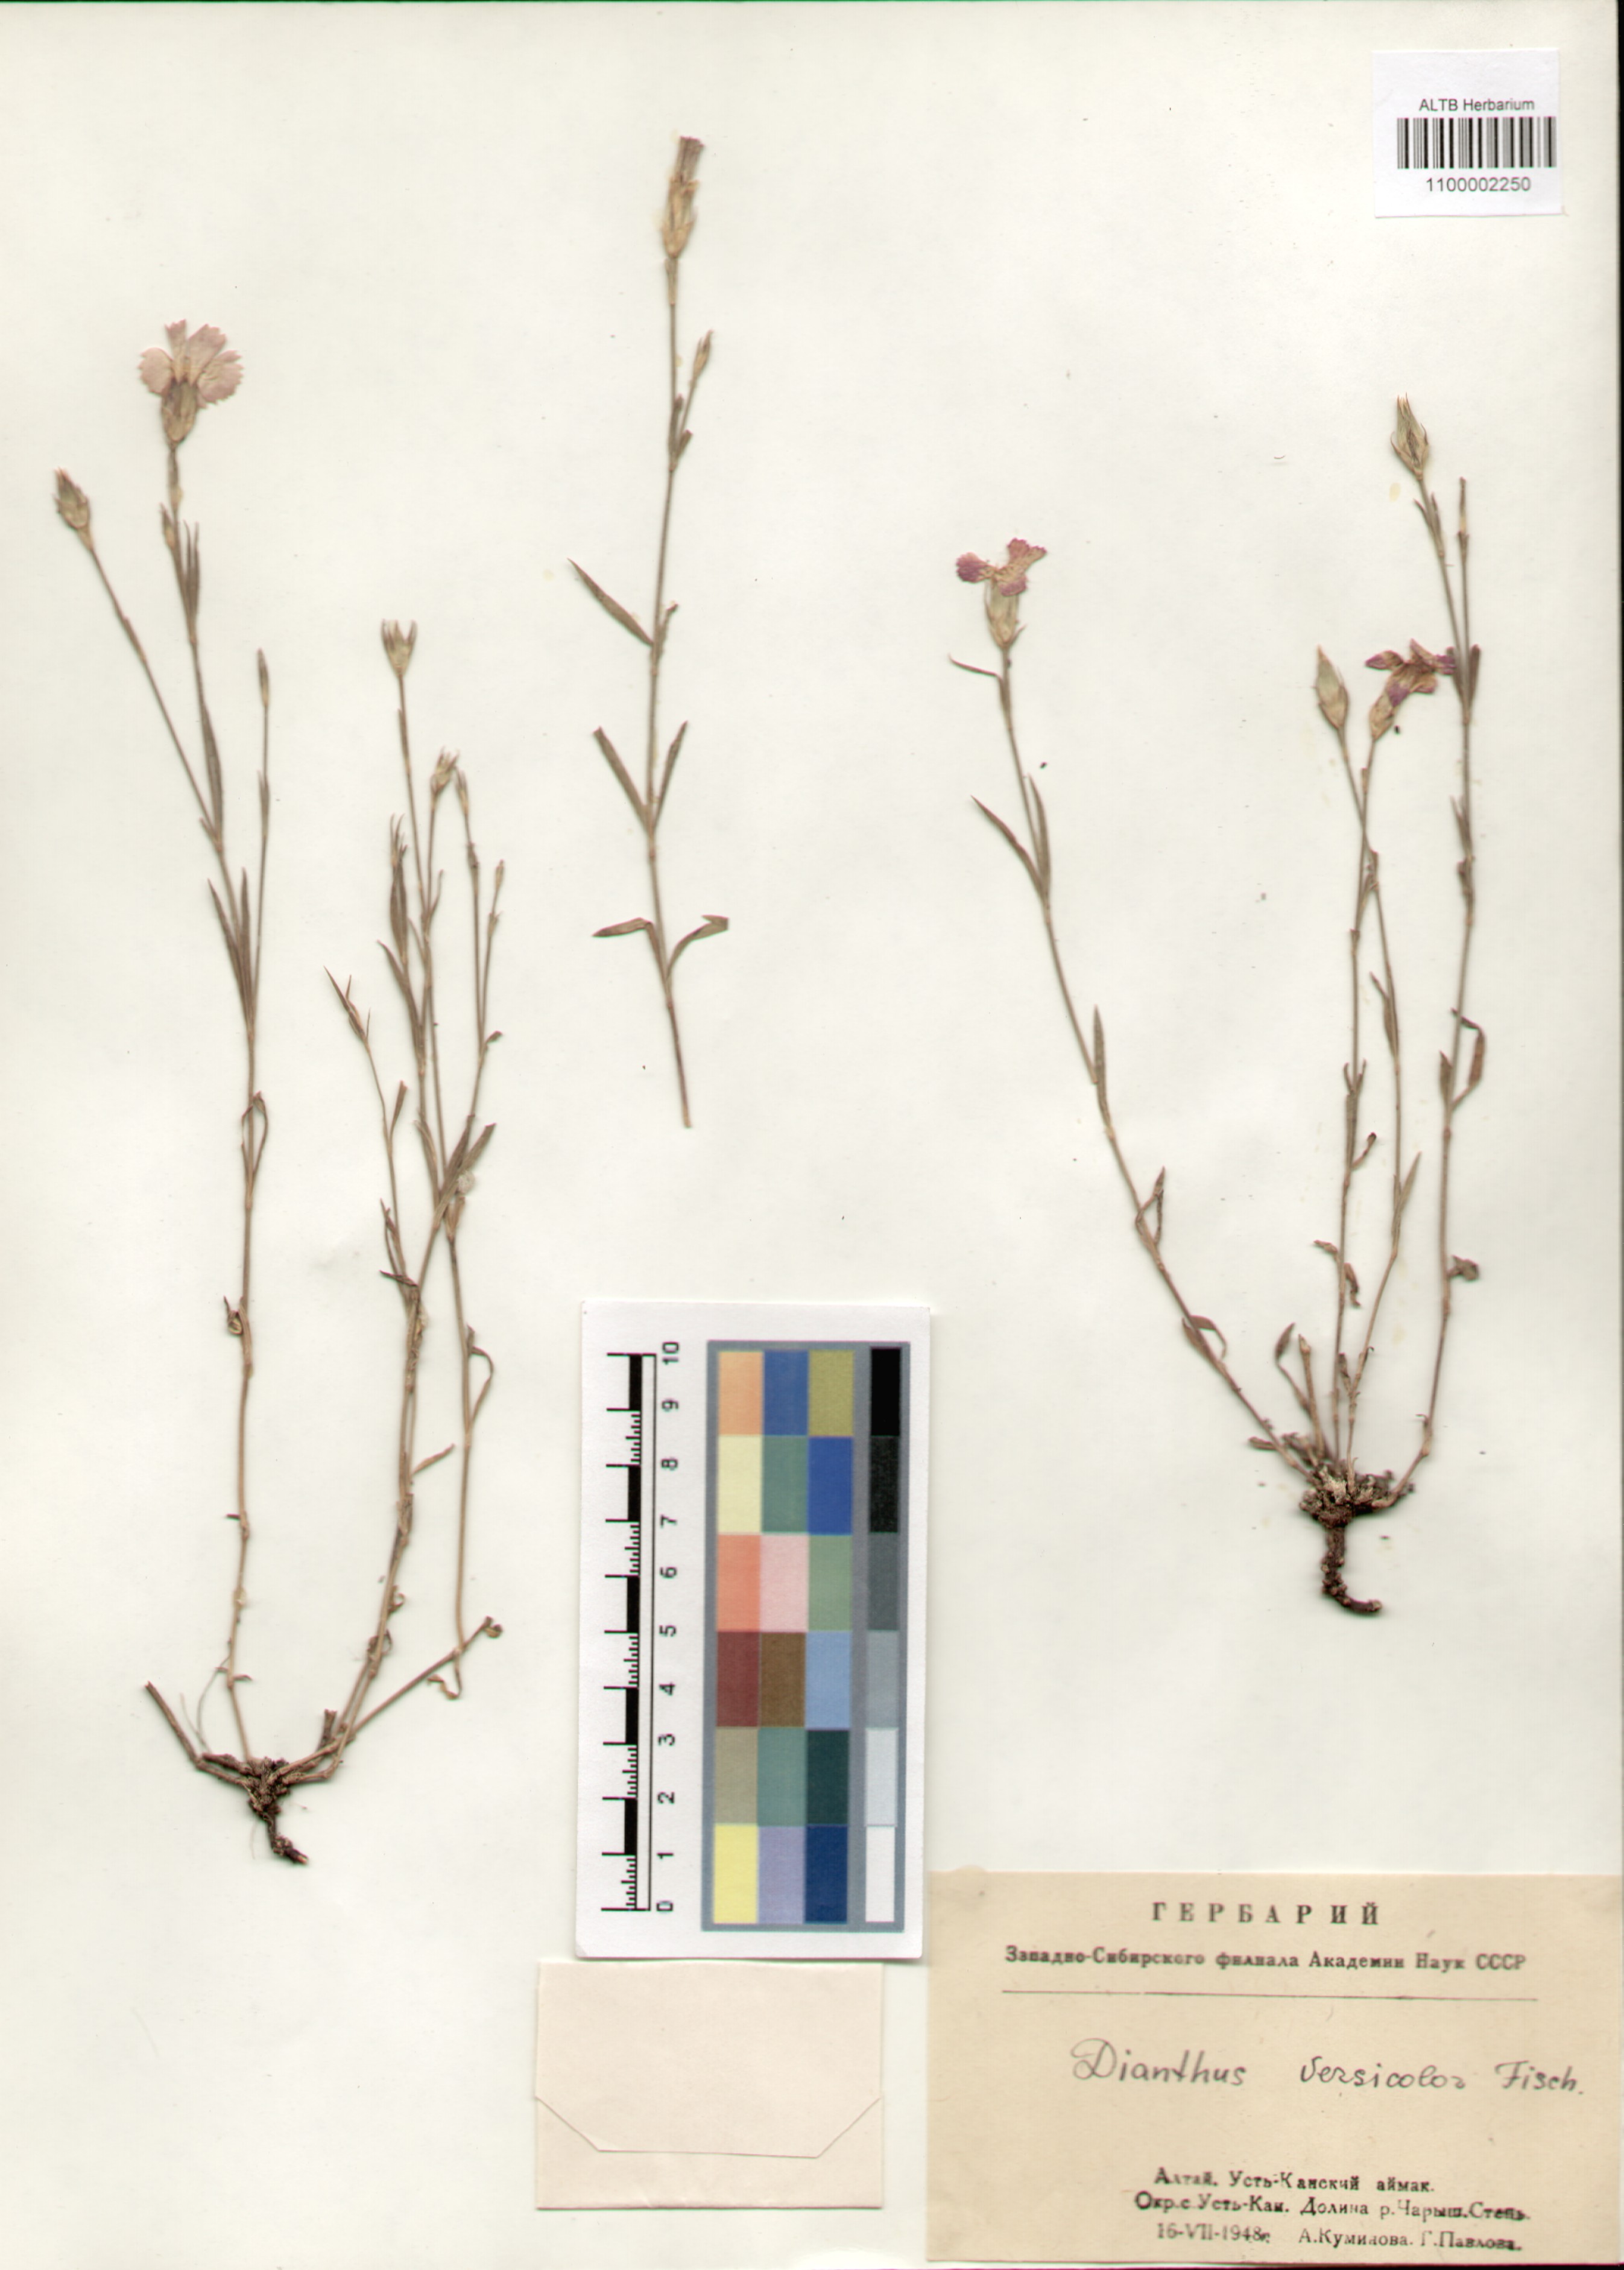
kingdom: Plantae
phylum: Tracheophyta
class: Magnoliopsida
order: Caryophyllales
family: Caryophyllaceae
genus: Dianthus
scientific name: Dianthus chinensis
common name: Rainbow pink
